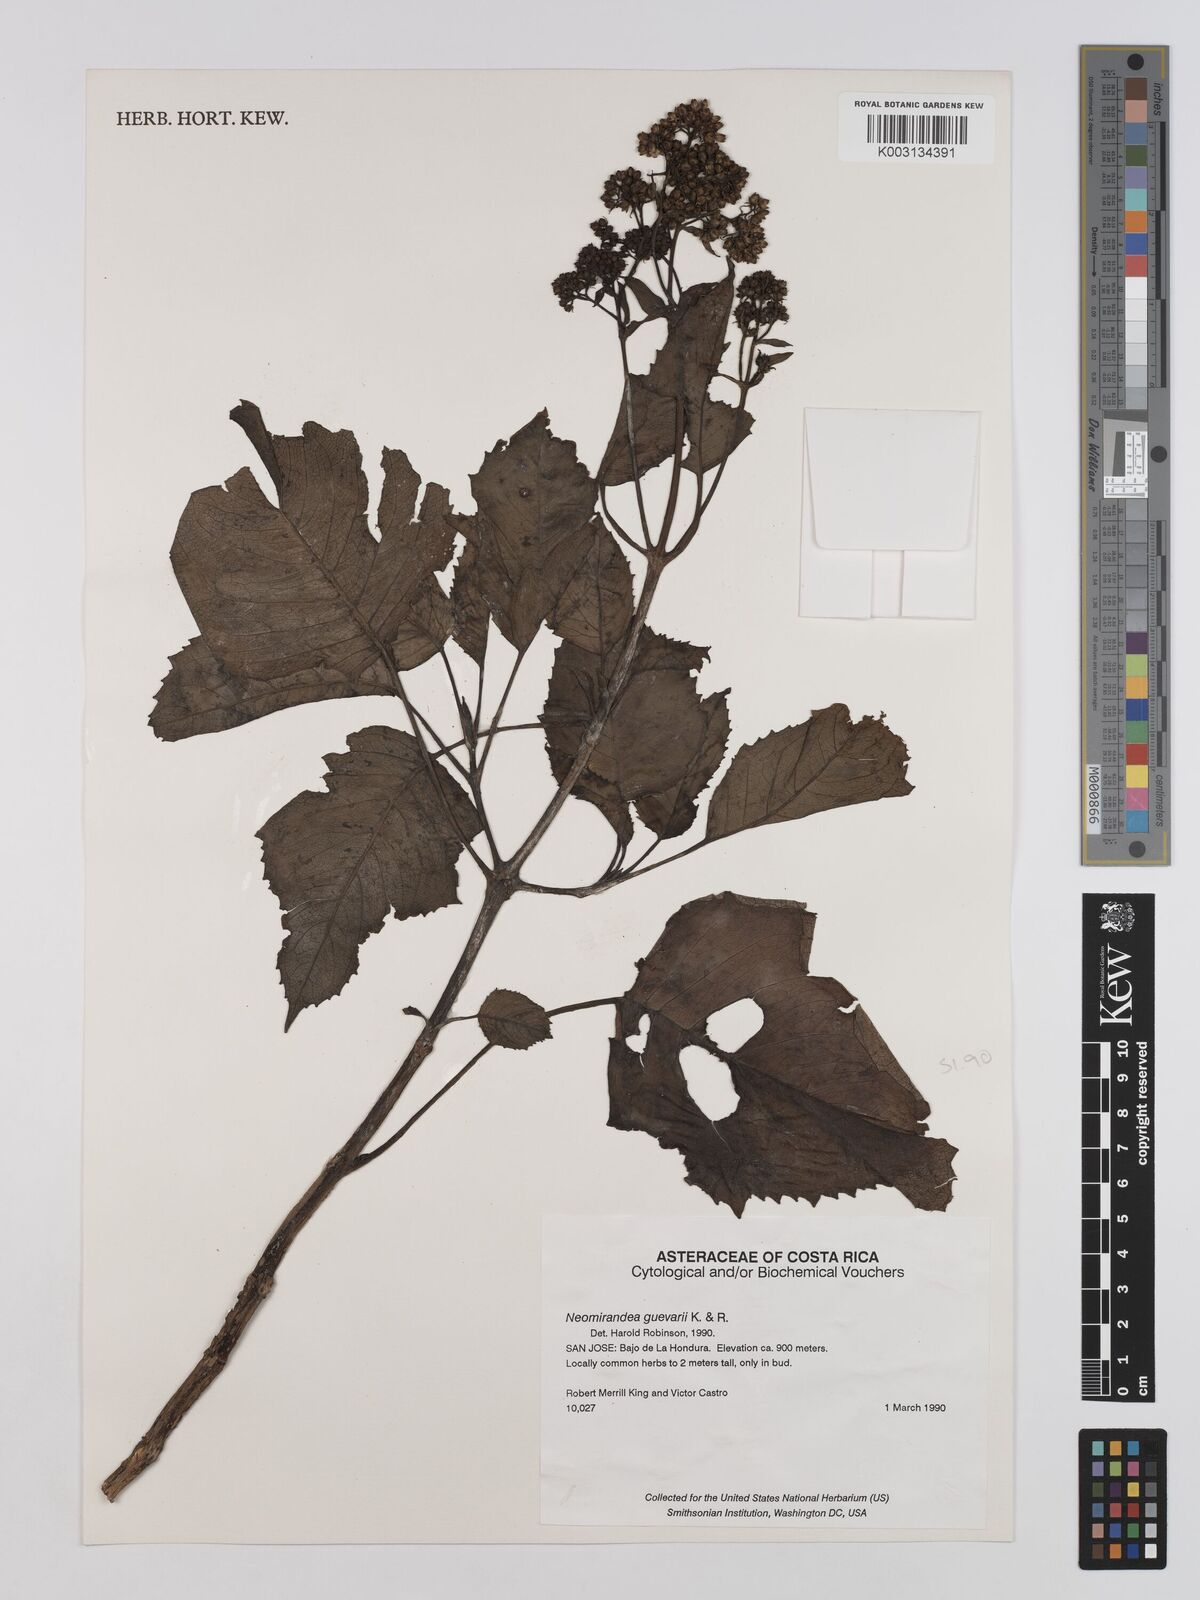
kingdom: Plantae
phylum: Tracheophyta
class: Magnoliopsida
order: Asterales
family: Asteraceae
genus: Neomirandea
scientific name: Neomirandea guevarae
